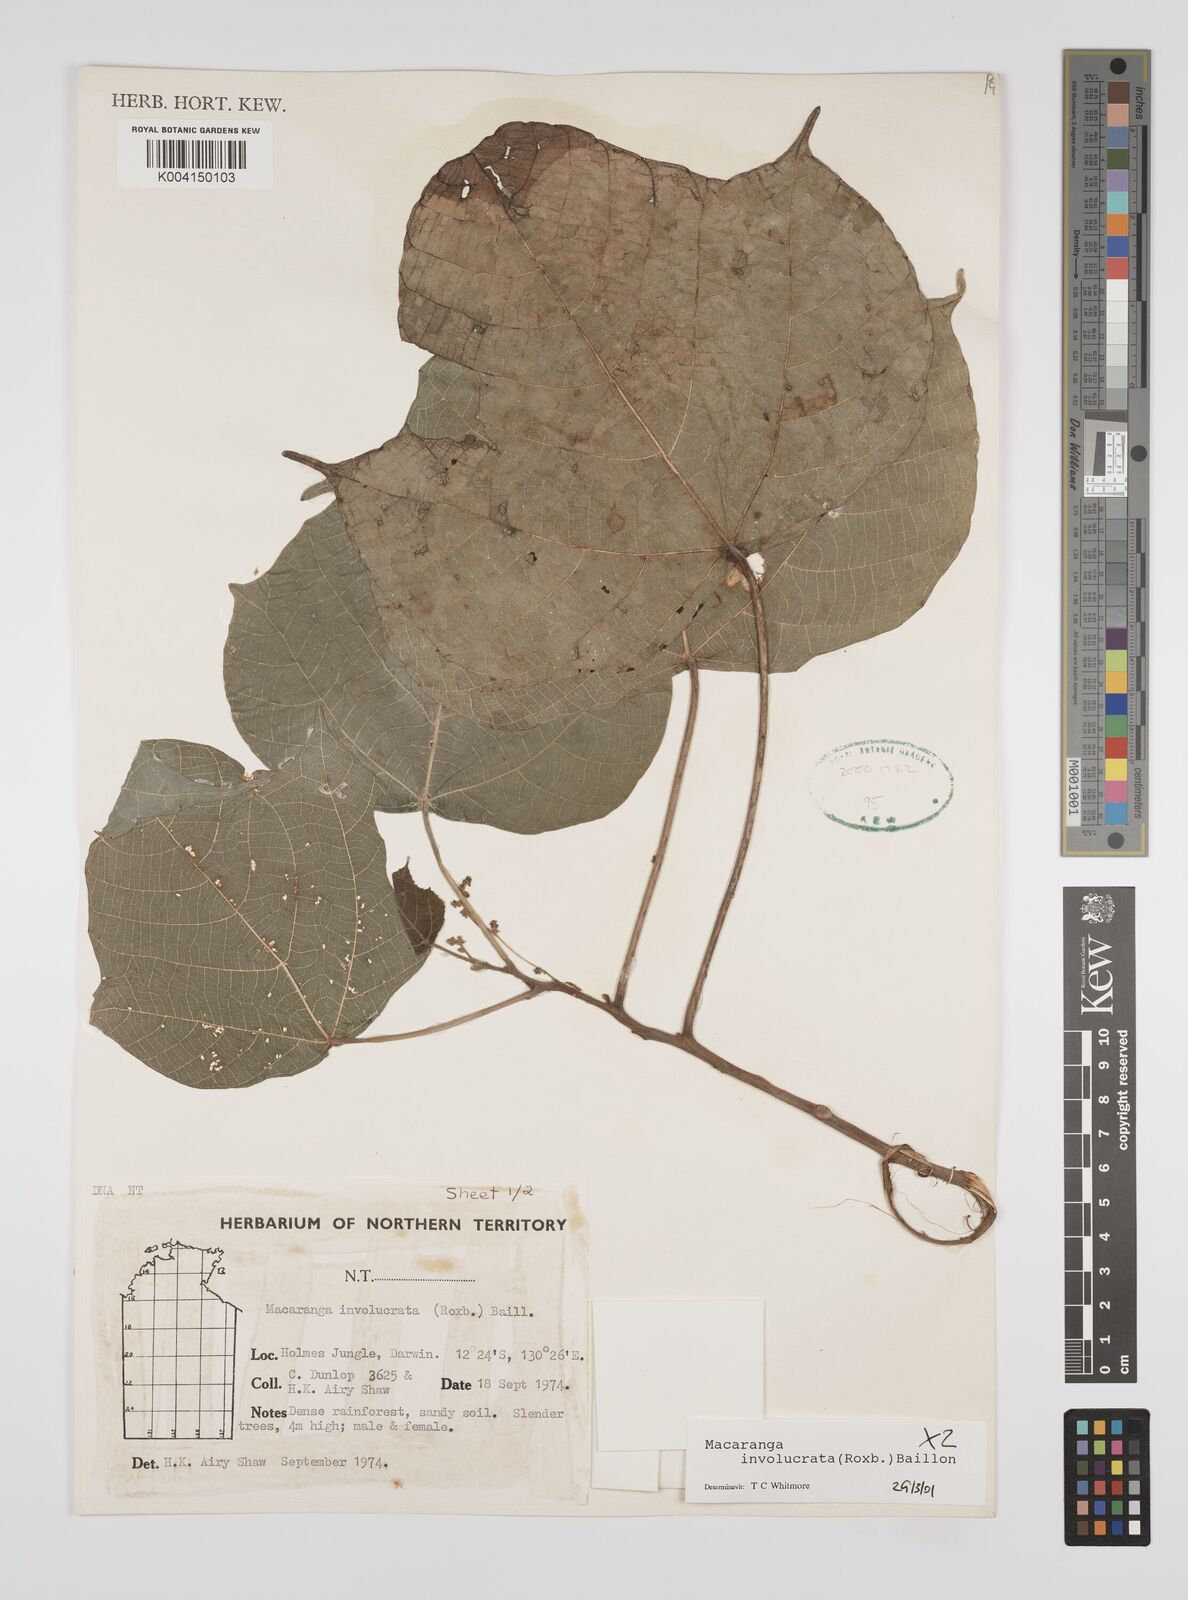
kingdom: Plantae
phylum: Tracheophyta
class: Magnoliopsida
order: Malpighiales
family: Euphorbiaceae
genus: Macaranga
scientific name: Macaranga involucrata
